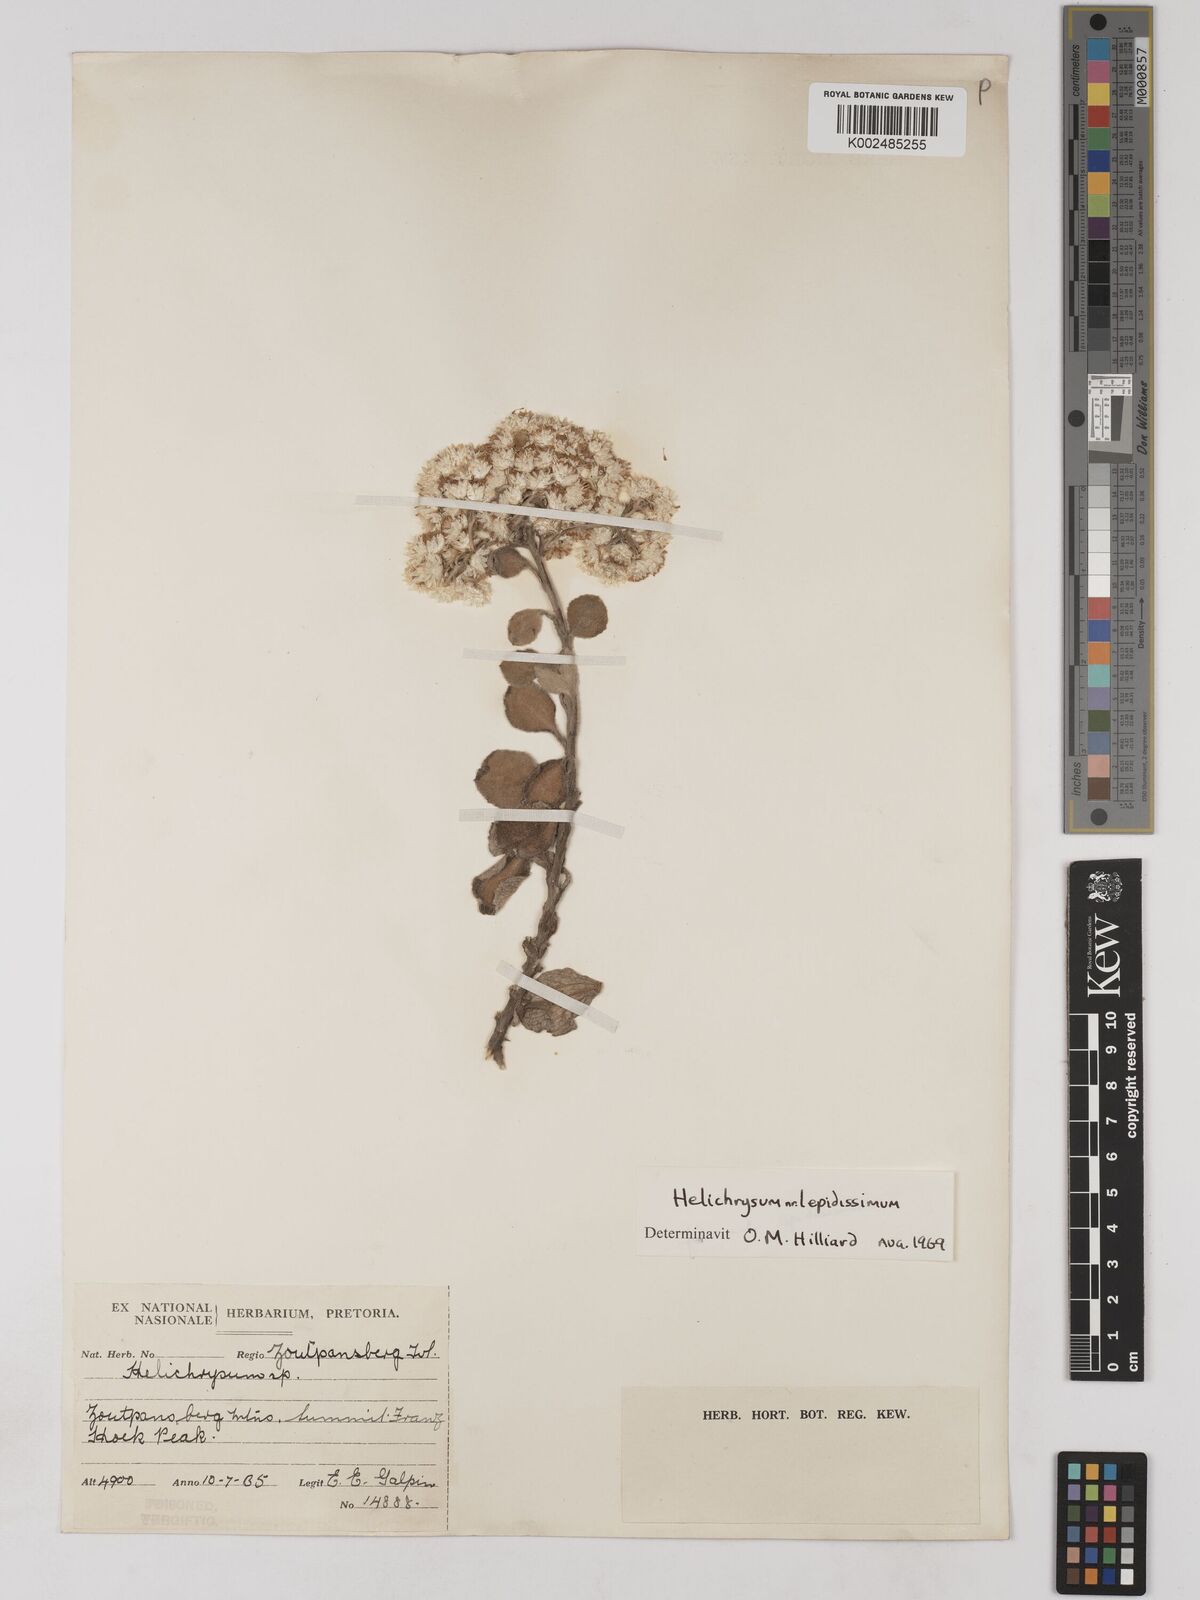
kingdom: Plantae
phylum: Tracheophyta
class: Magnoliopsida
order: Asterales
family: Asteraceae
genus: Helichrysum
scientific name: Helichrysum lepidissimum
